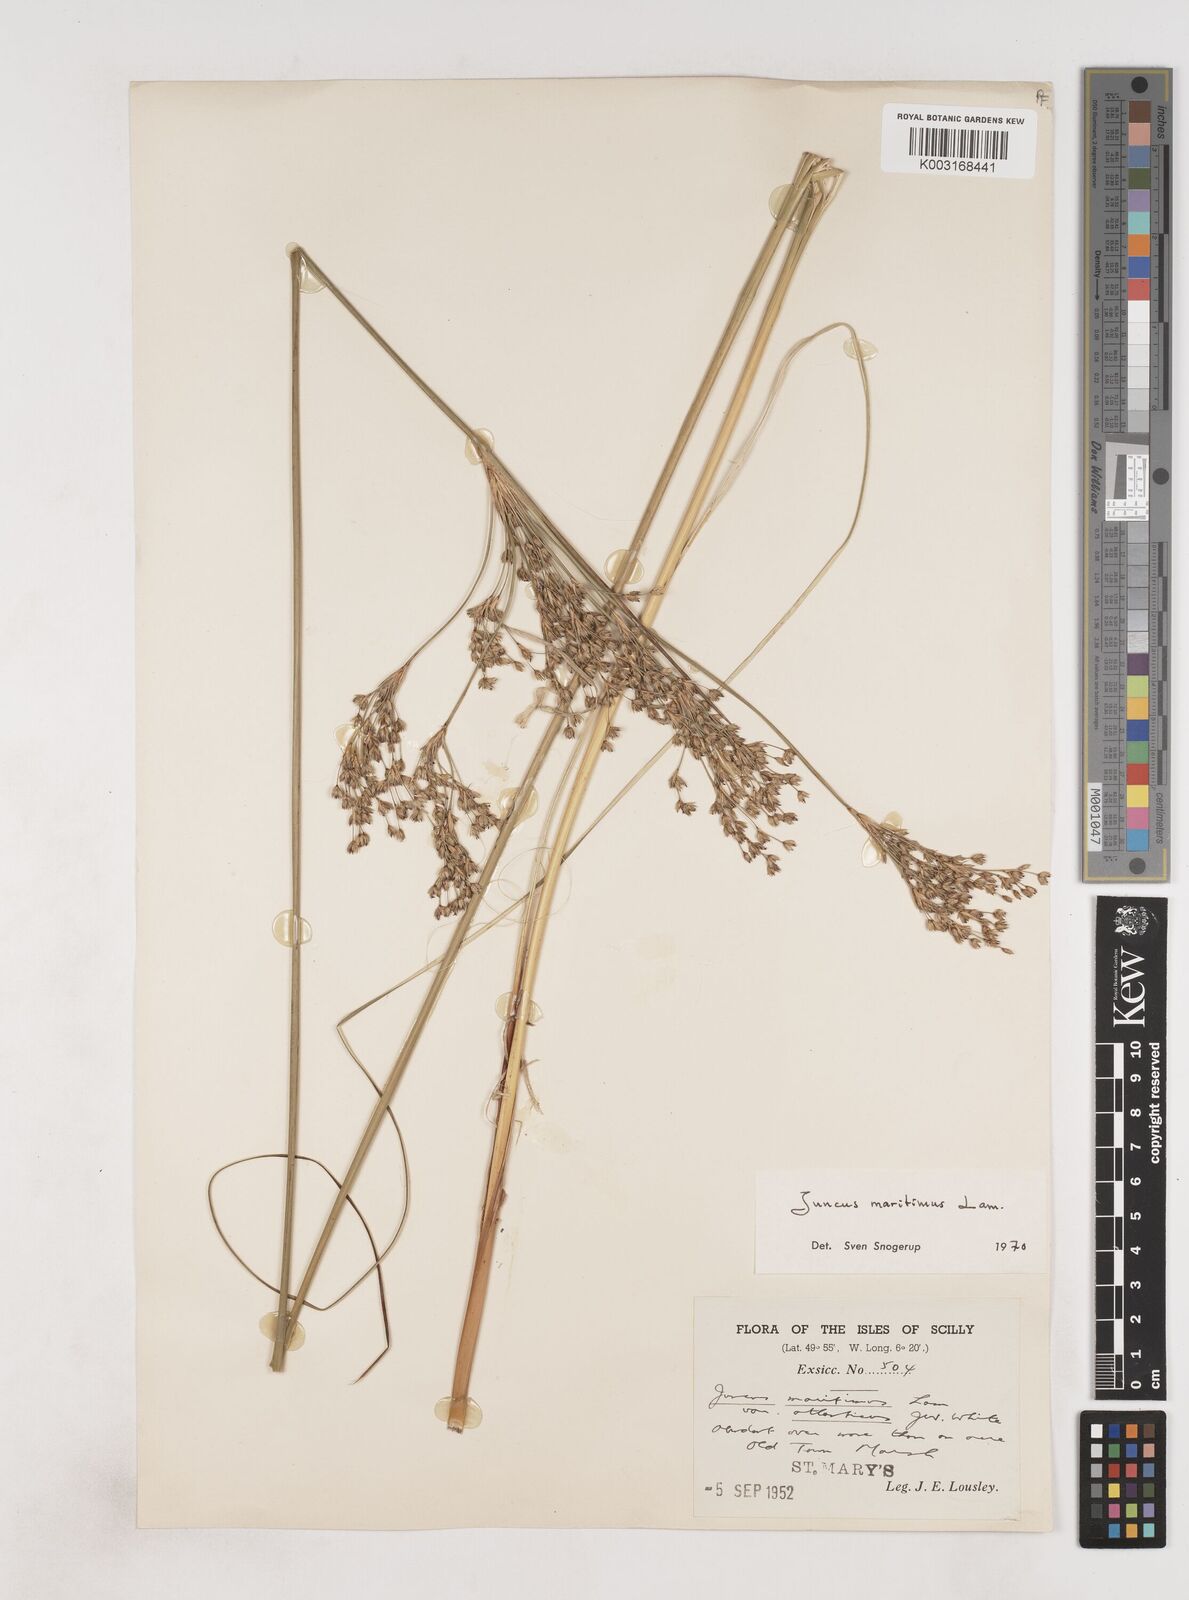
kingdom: Plantae
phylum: Tracheophyta
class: Liliopsida
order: Poales
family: Juncaceae
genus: Juncus
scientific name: Juncus maritimus
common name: Sea rush
